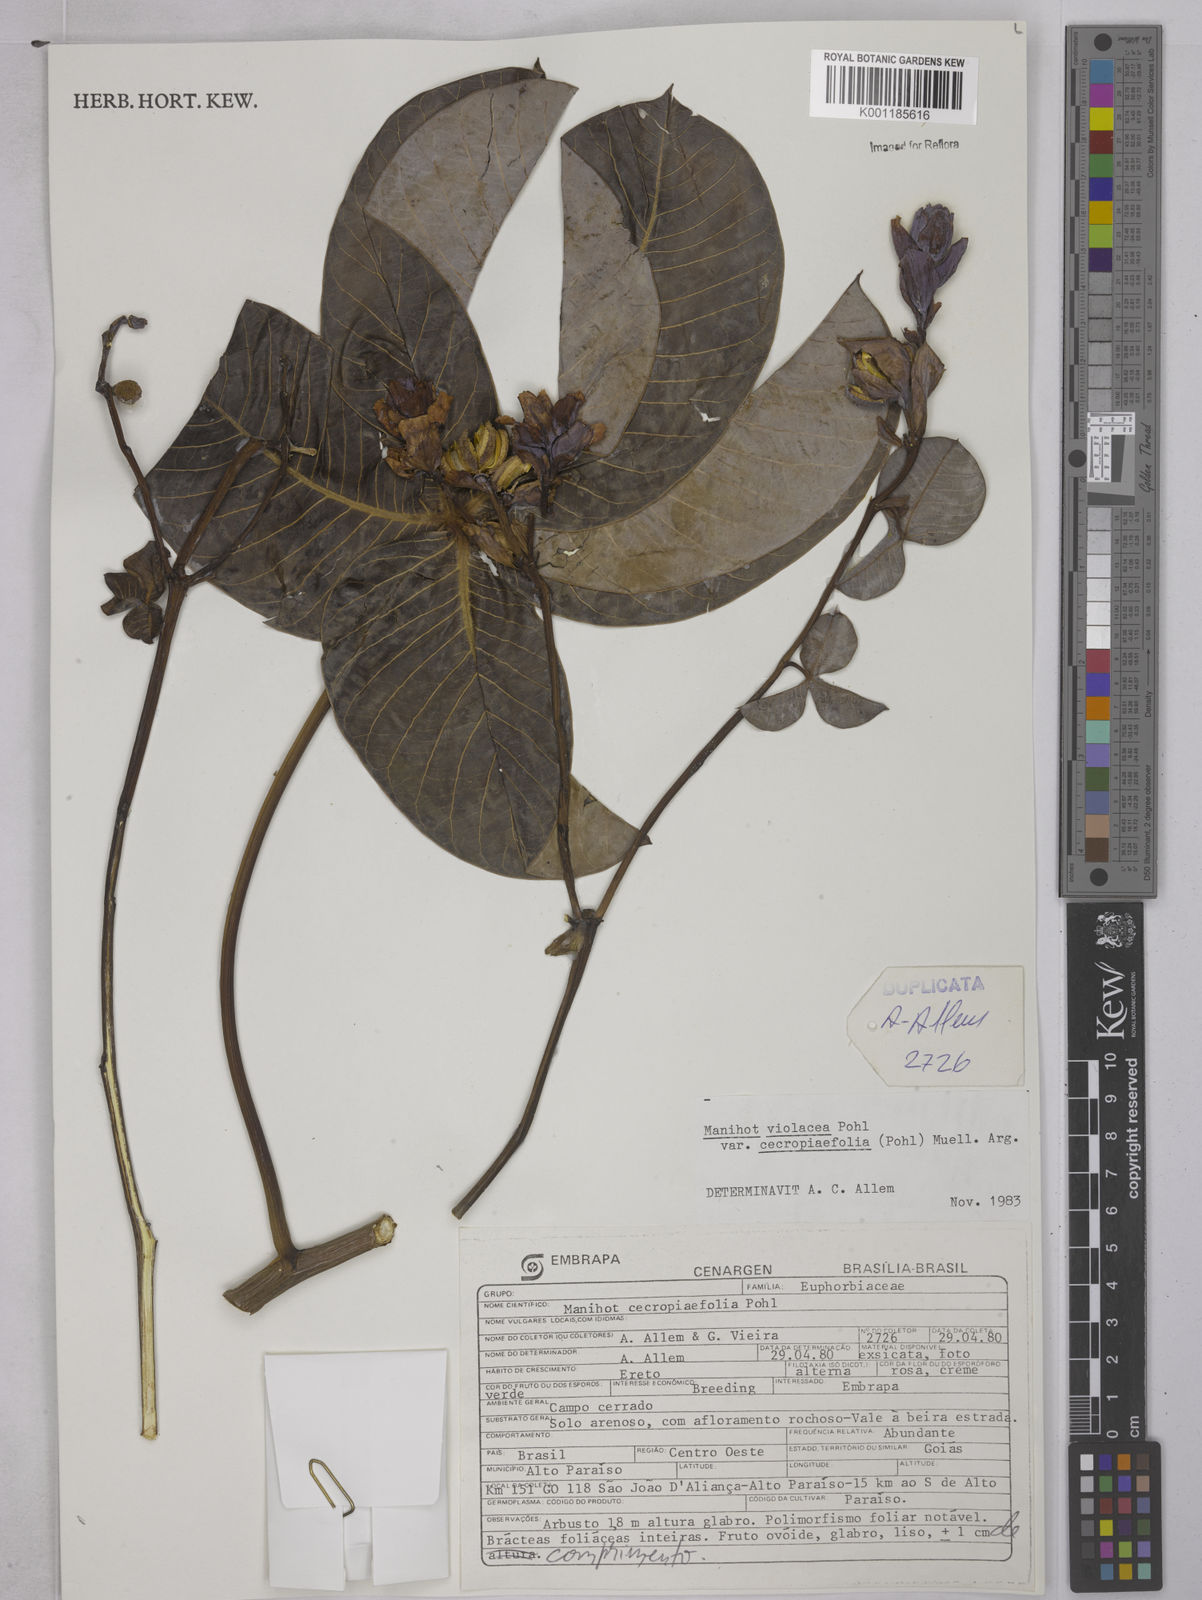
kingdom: Plantae
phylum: Tracheophyta
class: Magnoliopsida
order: Malpighiales
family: Euphorbiaceae
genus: Manihot
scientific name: Manihot cecropiifolia
